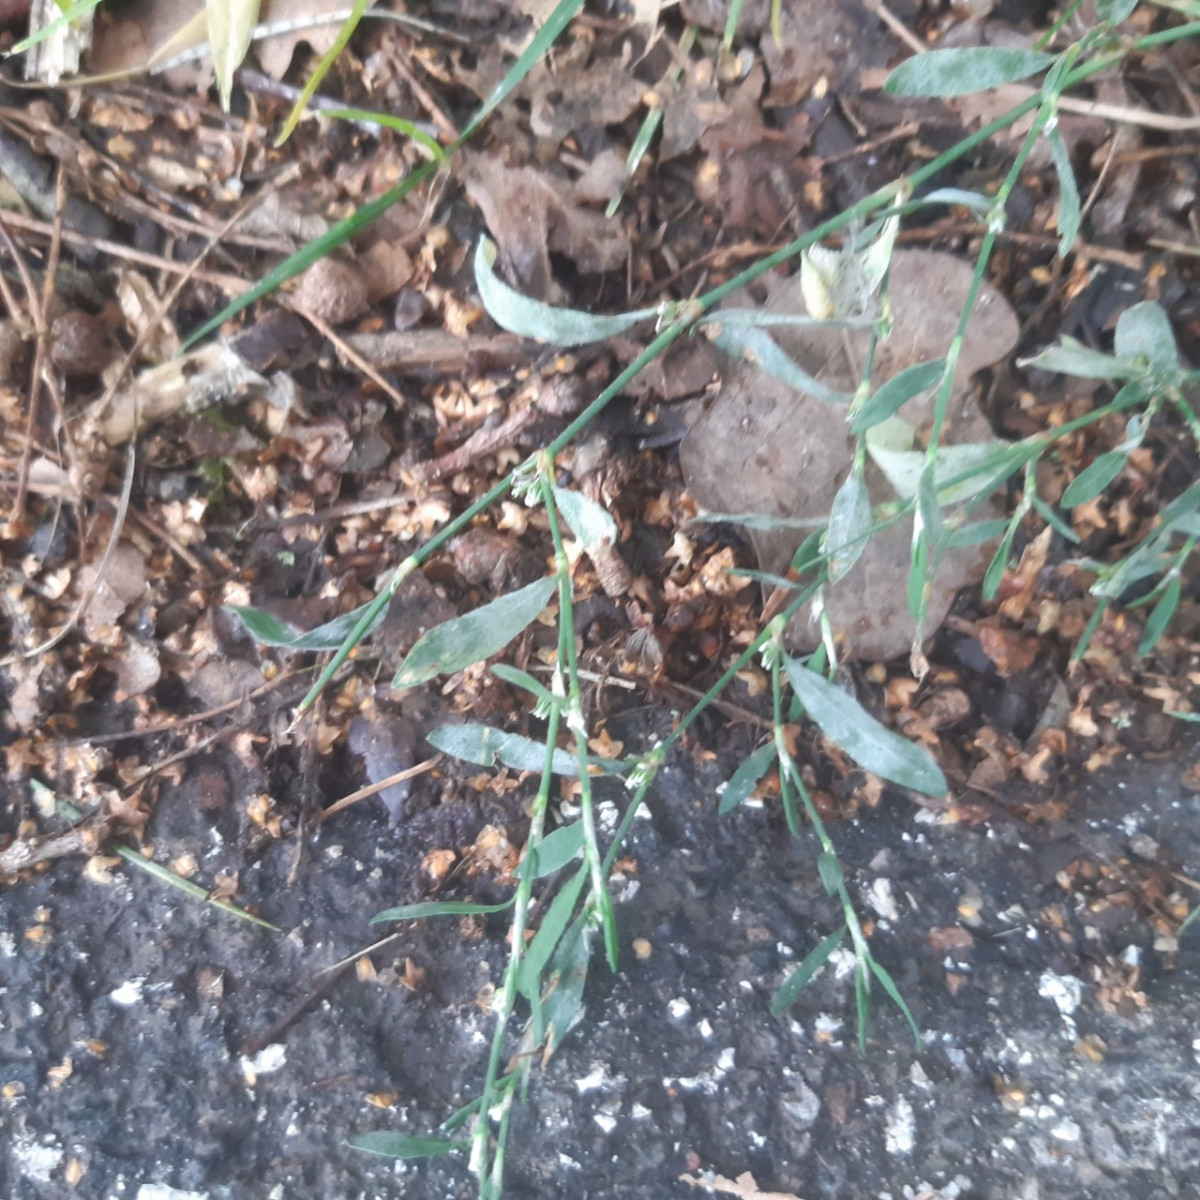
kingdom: Fungi
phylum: Ascomycota
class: Leotiomycetes
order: Helotiales
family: Erysiphaceae
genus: Erysiphe
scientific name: Erysiphe polygoni
